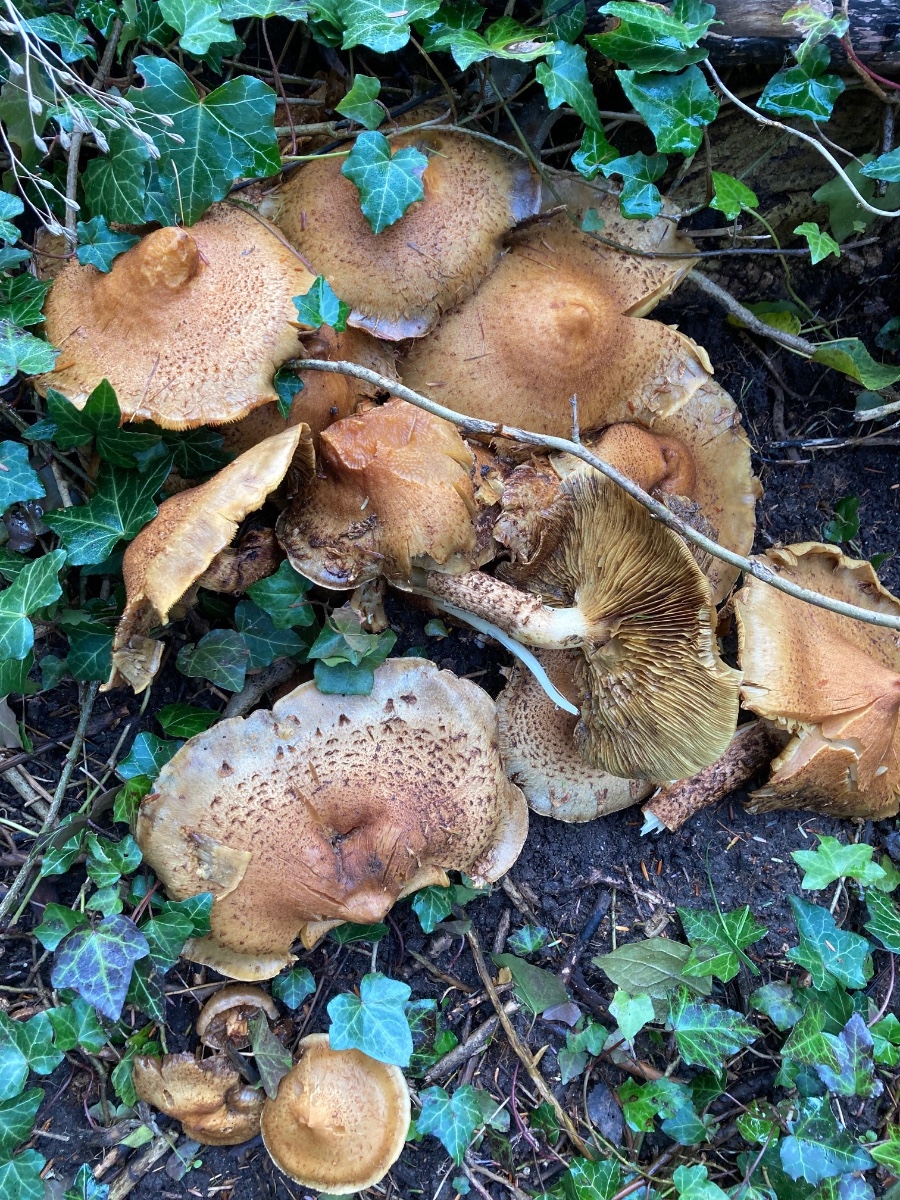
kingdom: Fungi
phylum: Basidiomycota
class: Agaricomycetes
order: Agaricales
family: Strophariaceae
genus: Pholiota
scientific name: Pholiota squarrosa
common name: krumskællet skælhat
